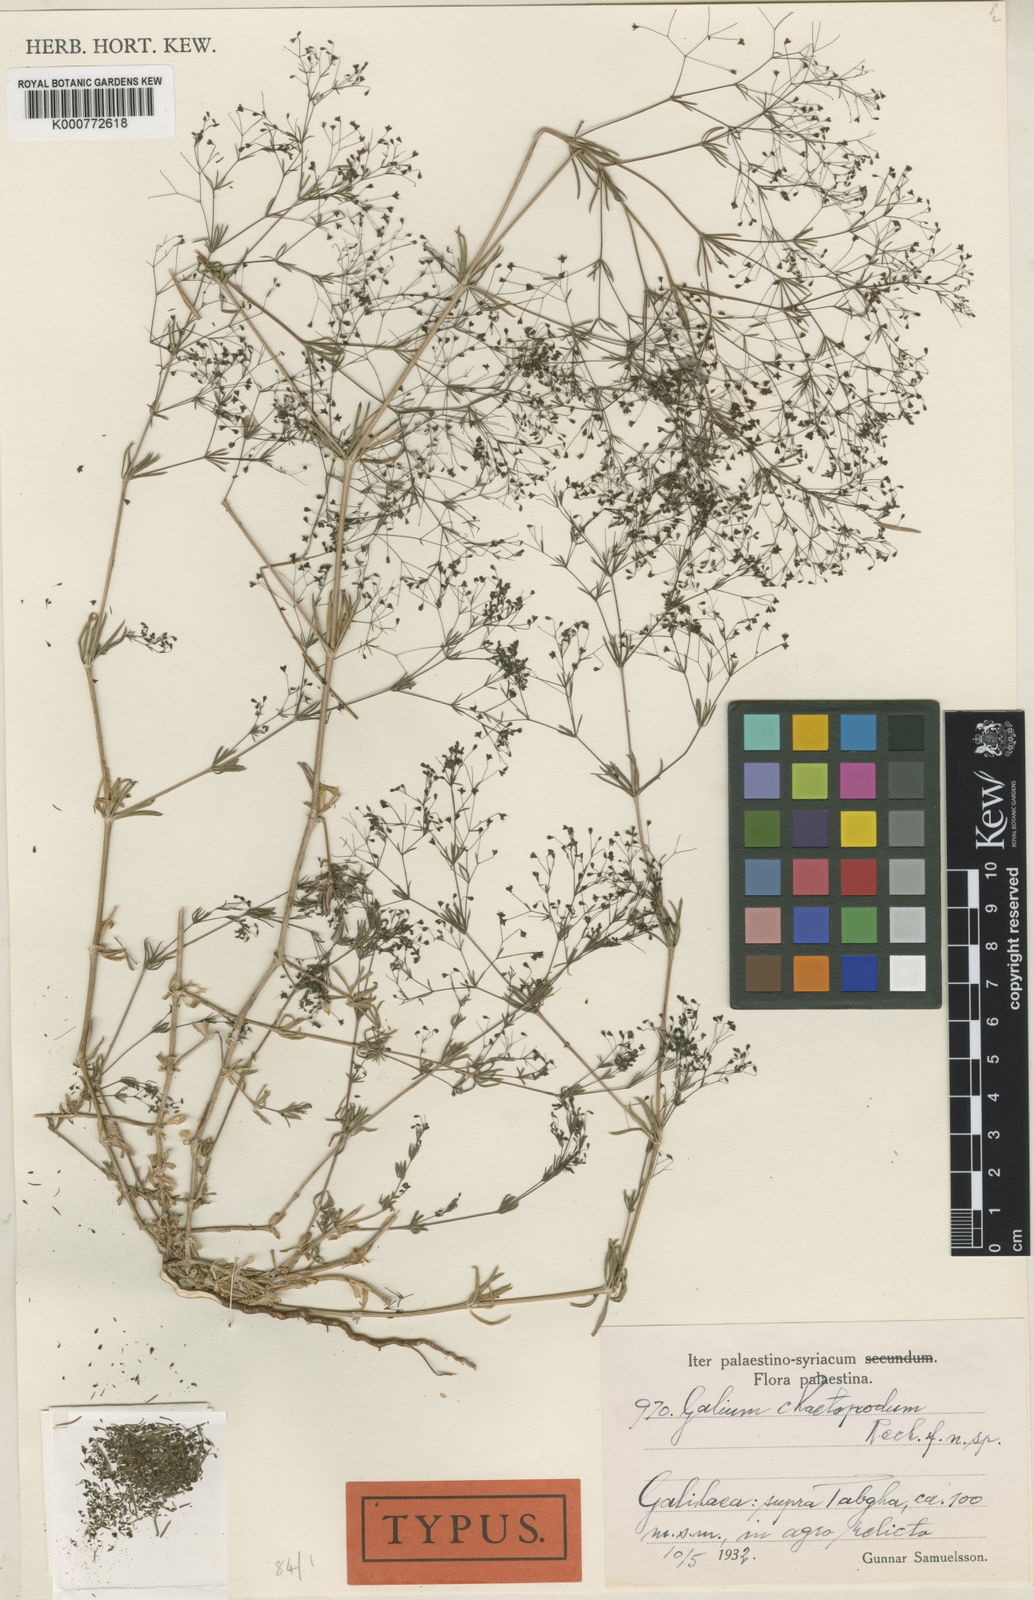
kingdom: Plantae
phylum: Tracheophyta
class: Magnoliopsida
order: Gentianales
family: Rubiaceae
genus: Galium
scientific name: Galium chaetopodum
